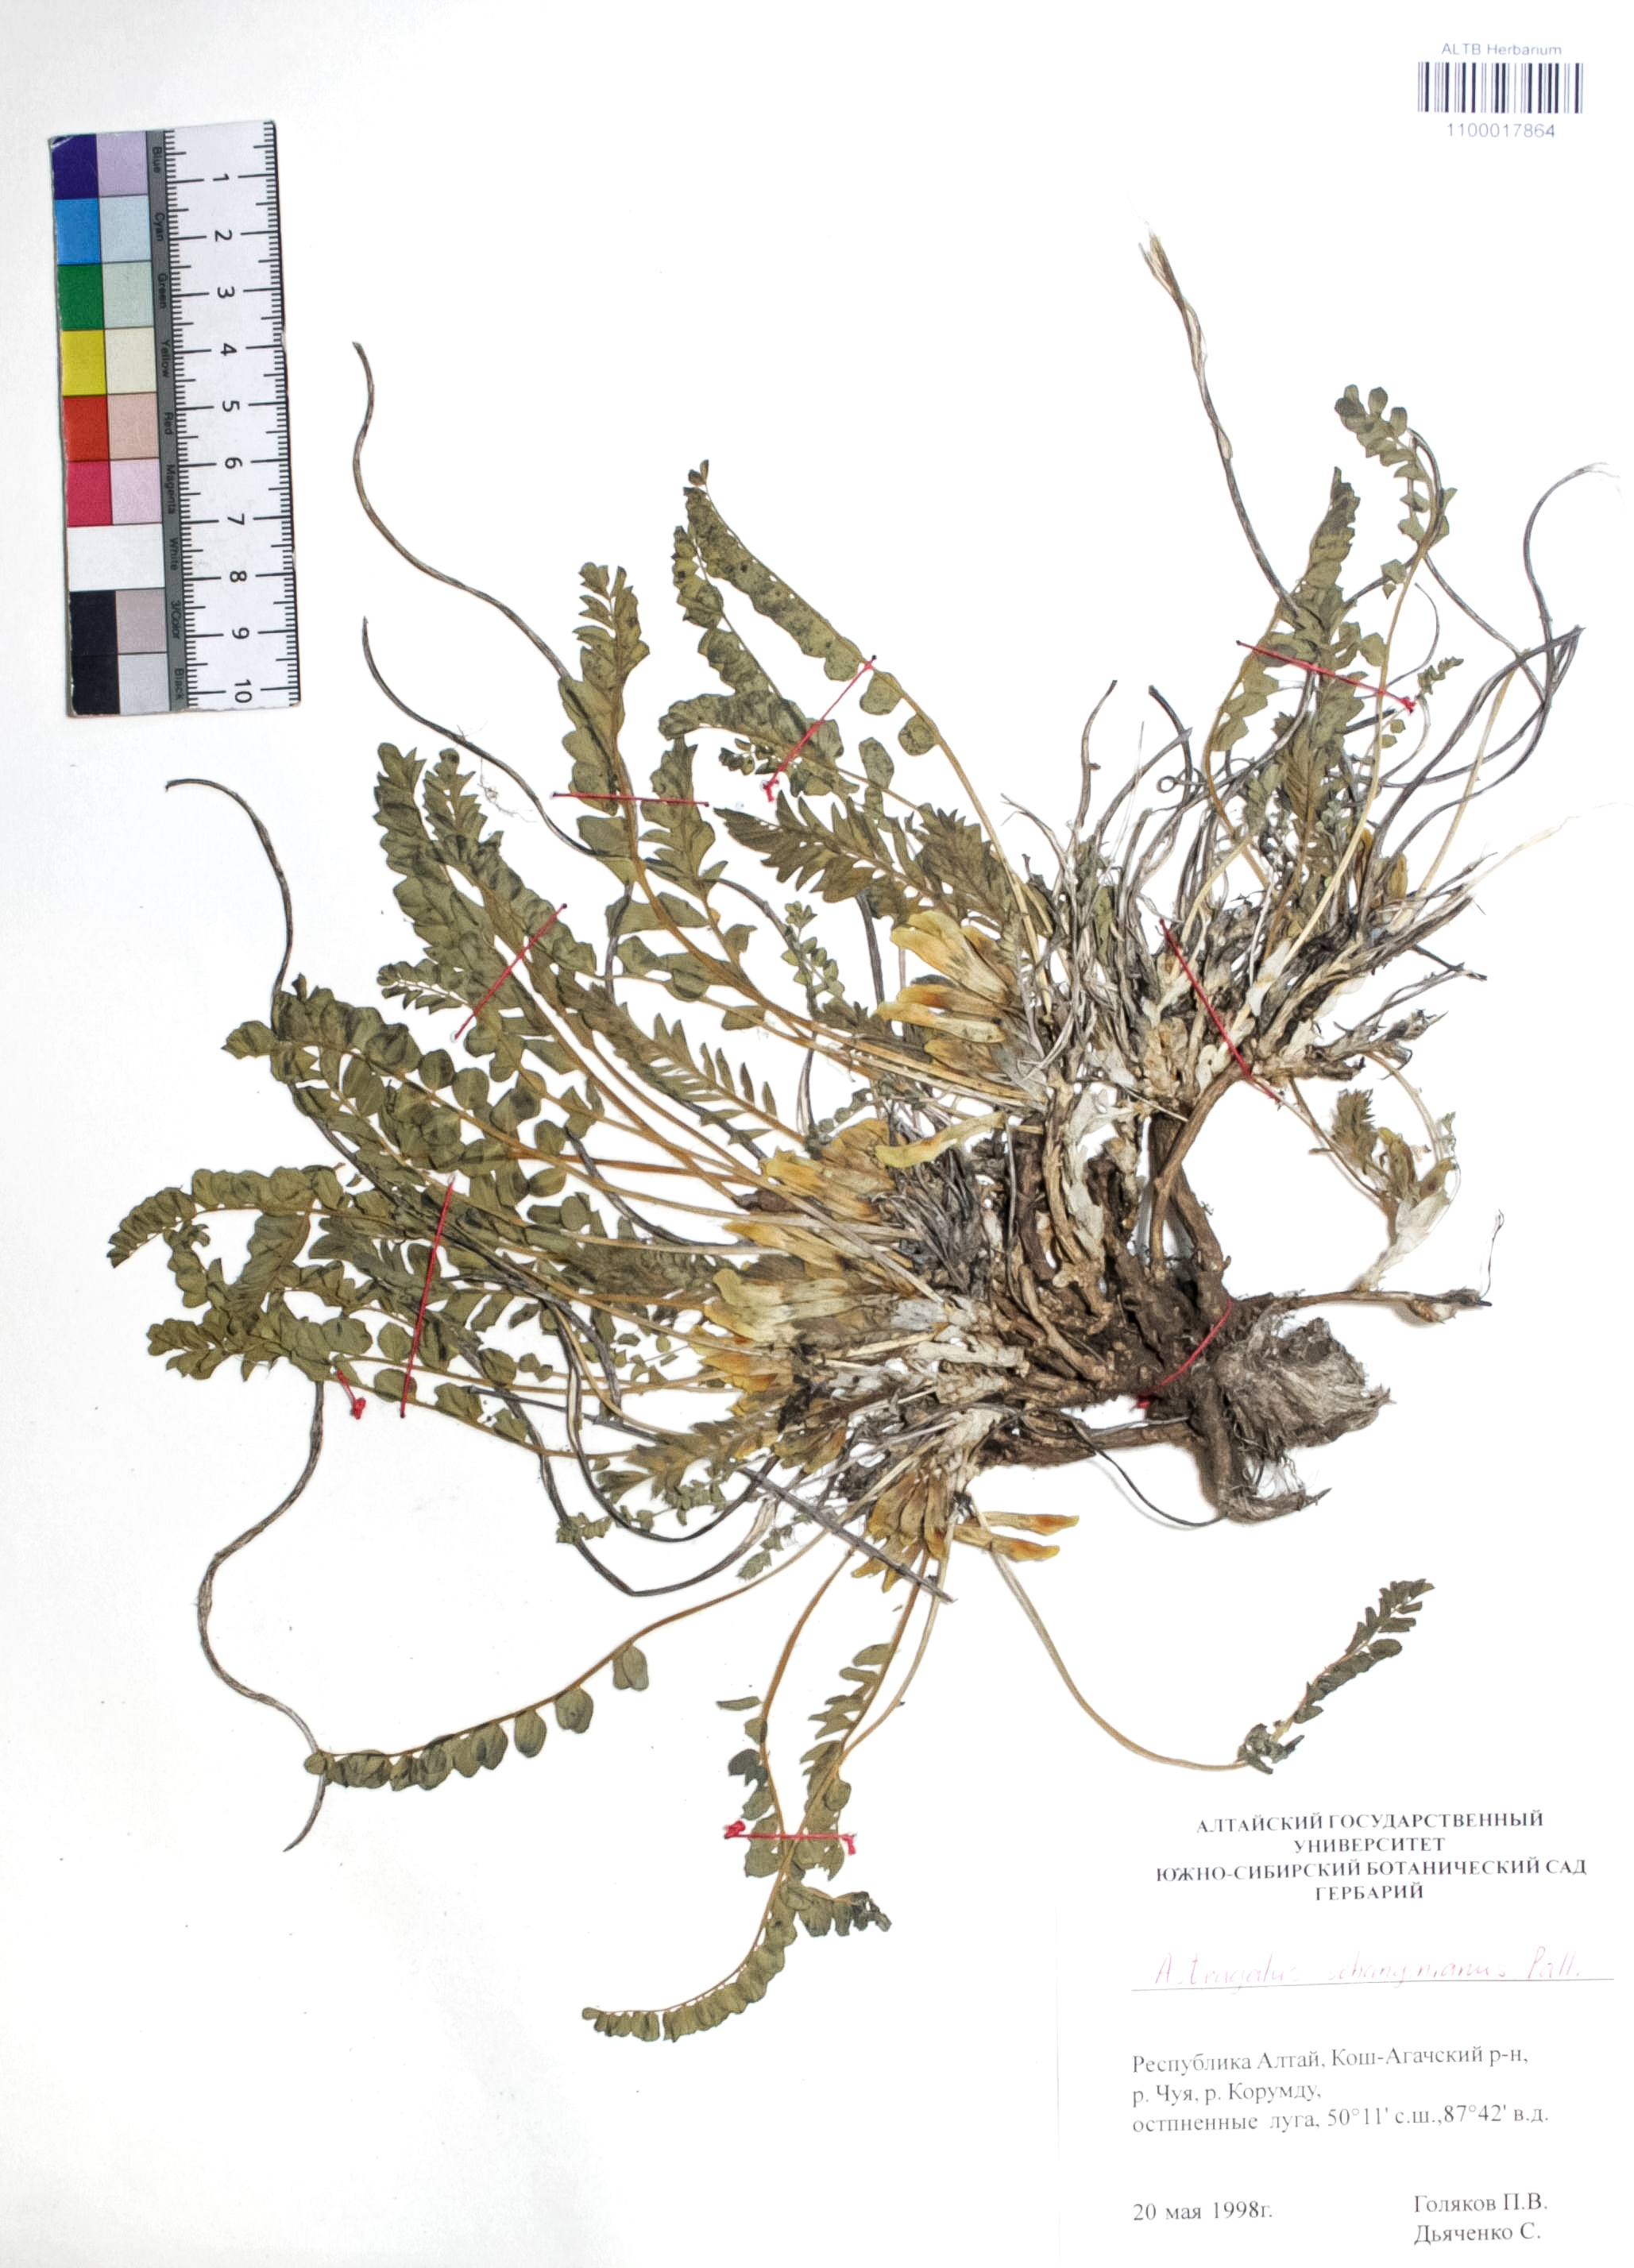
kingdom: Plantae
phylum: Tracheophyta
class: Magnoliopsida
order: Fabales
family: Fabaceae
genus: Astragalus
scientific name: Astragalus schanginianus
